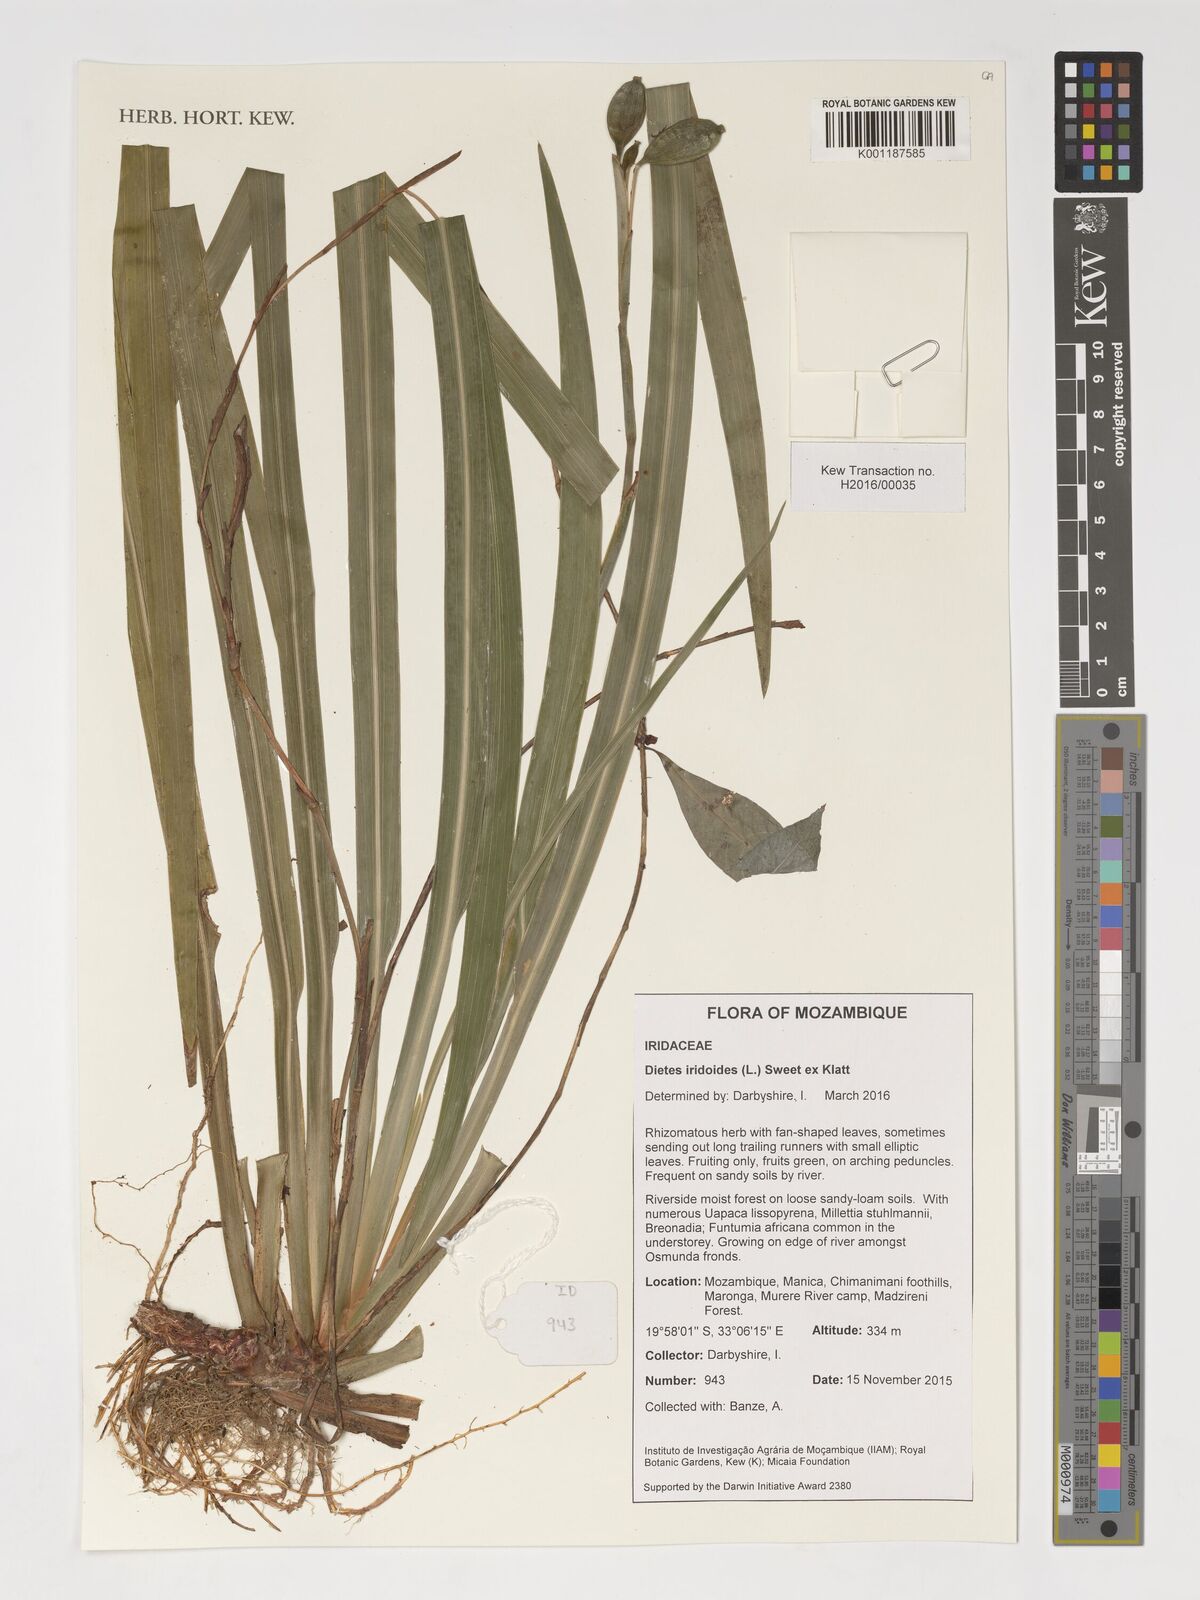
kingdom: Plantae
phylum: Tracheophyta
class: Liliopsida
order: Asparagales
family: Iridaceae
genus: Dietes
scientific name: Dietes iridioides
